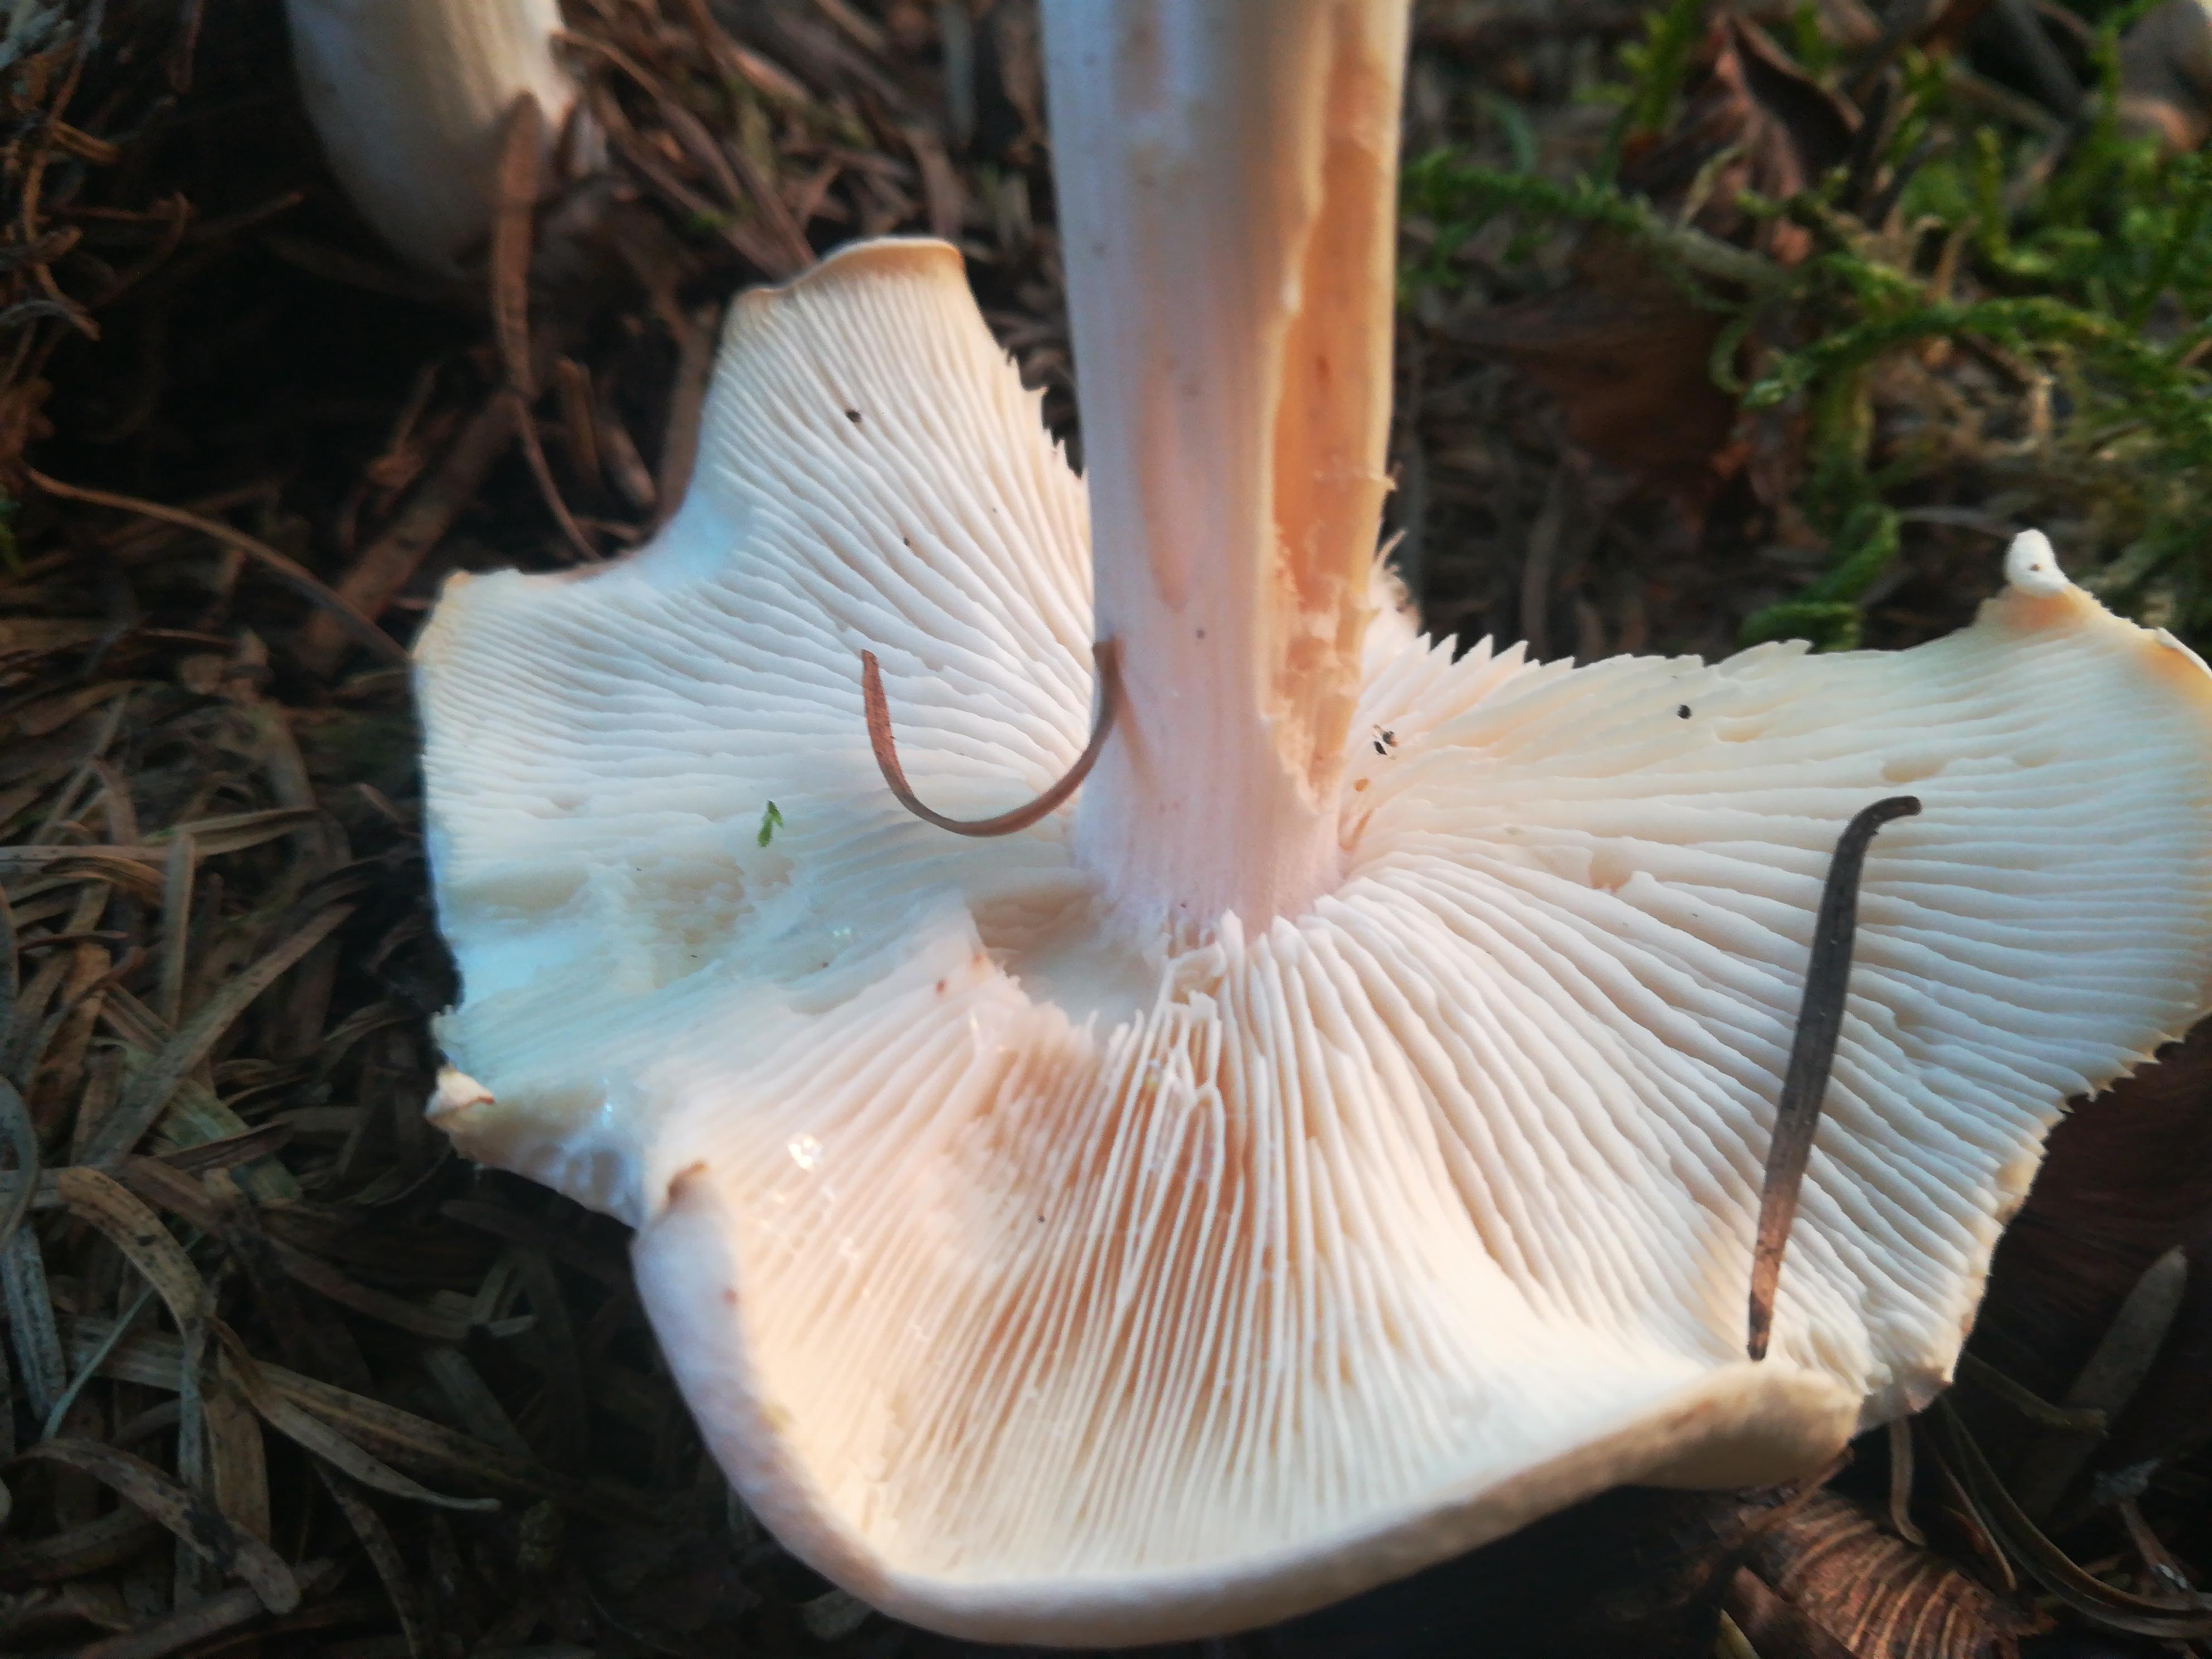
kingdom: Fungi
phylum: Basidiomycota
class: Agaricomycetes
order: Agaricales
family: Omphalotaceae
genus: Rhodocollybia
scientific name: Rhodocollybia maculata
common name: plettet fladhat
